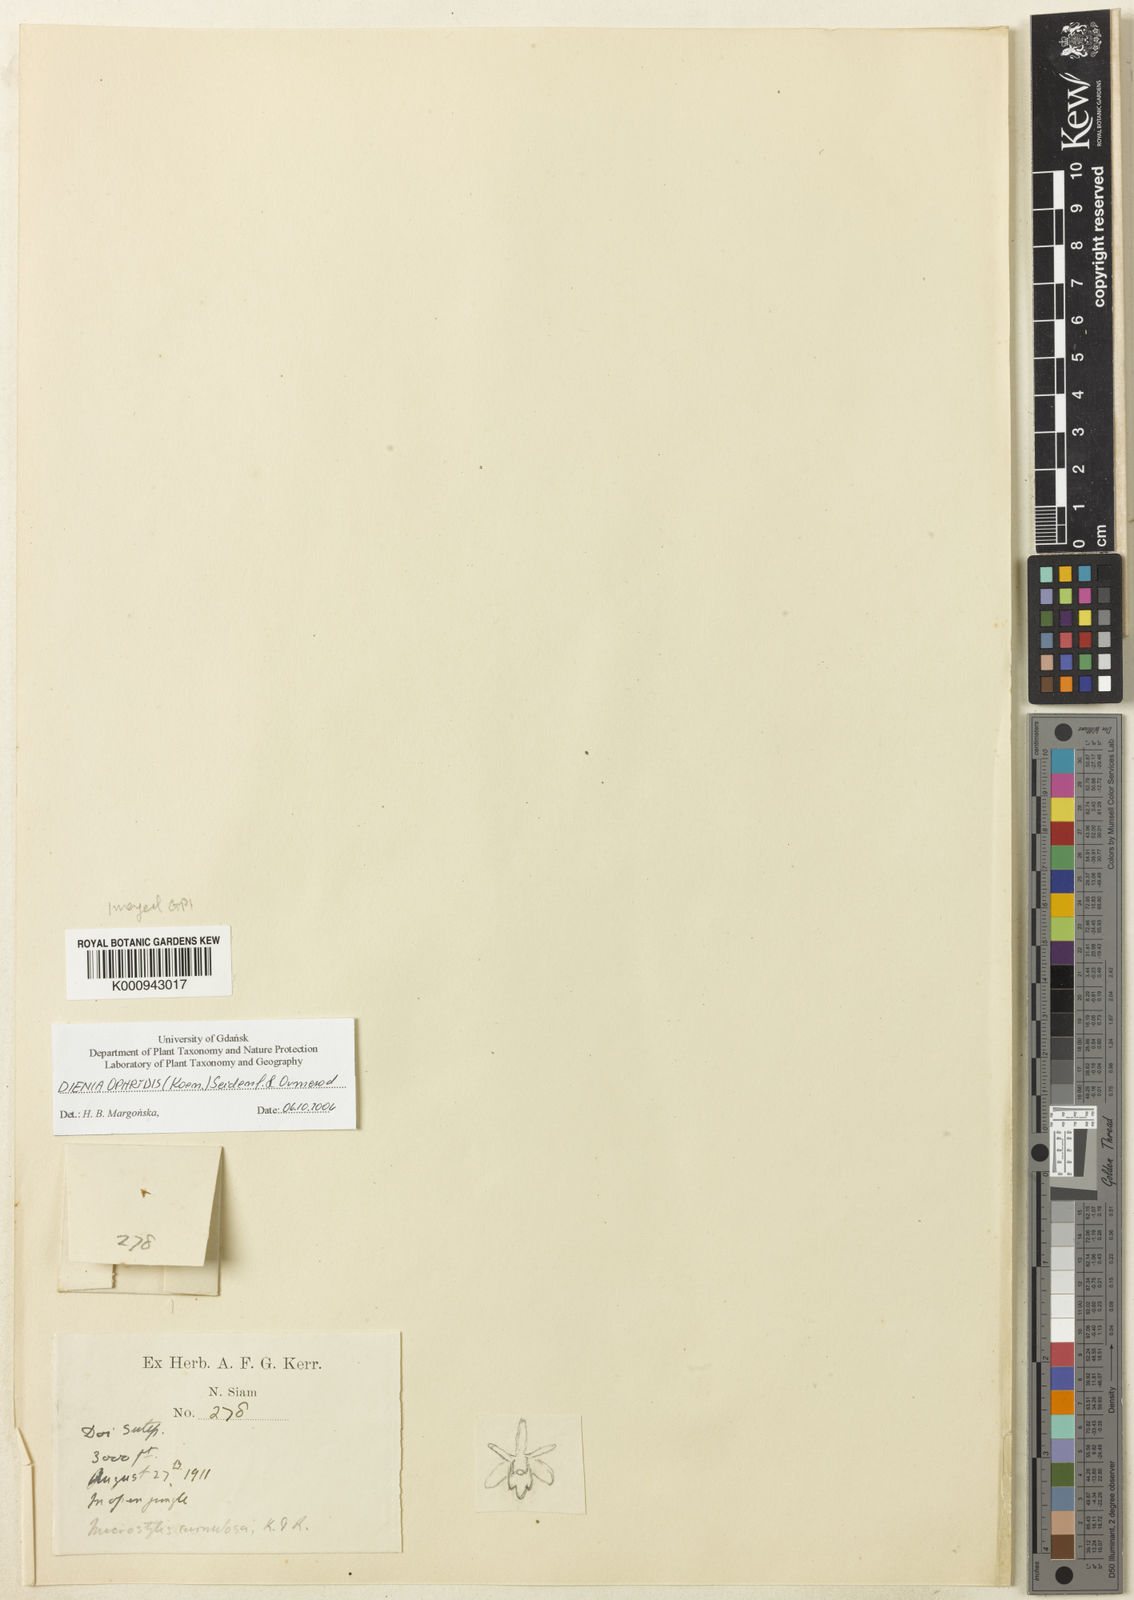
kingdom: Plantae
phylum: Tracheophyta
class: Liliopsida
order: Asparagales
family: Orchidaceae
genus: Dienia
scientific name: Dienia ophrydis
